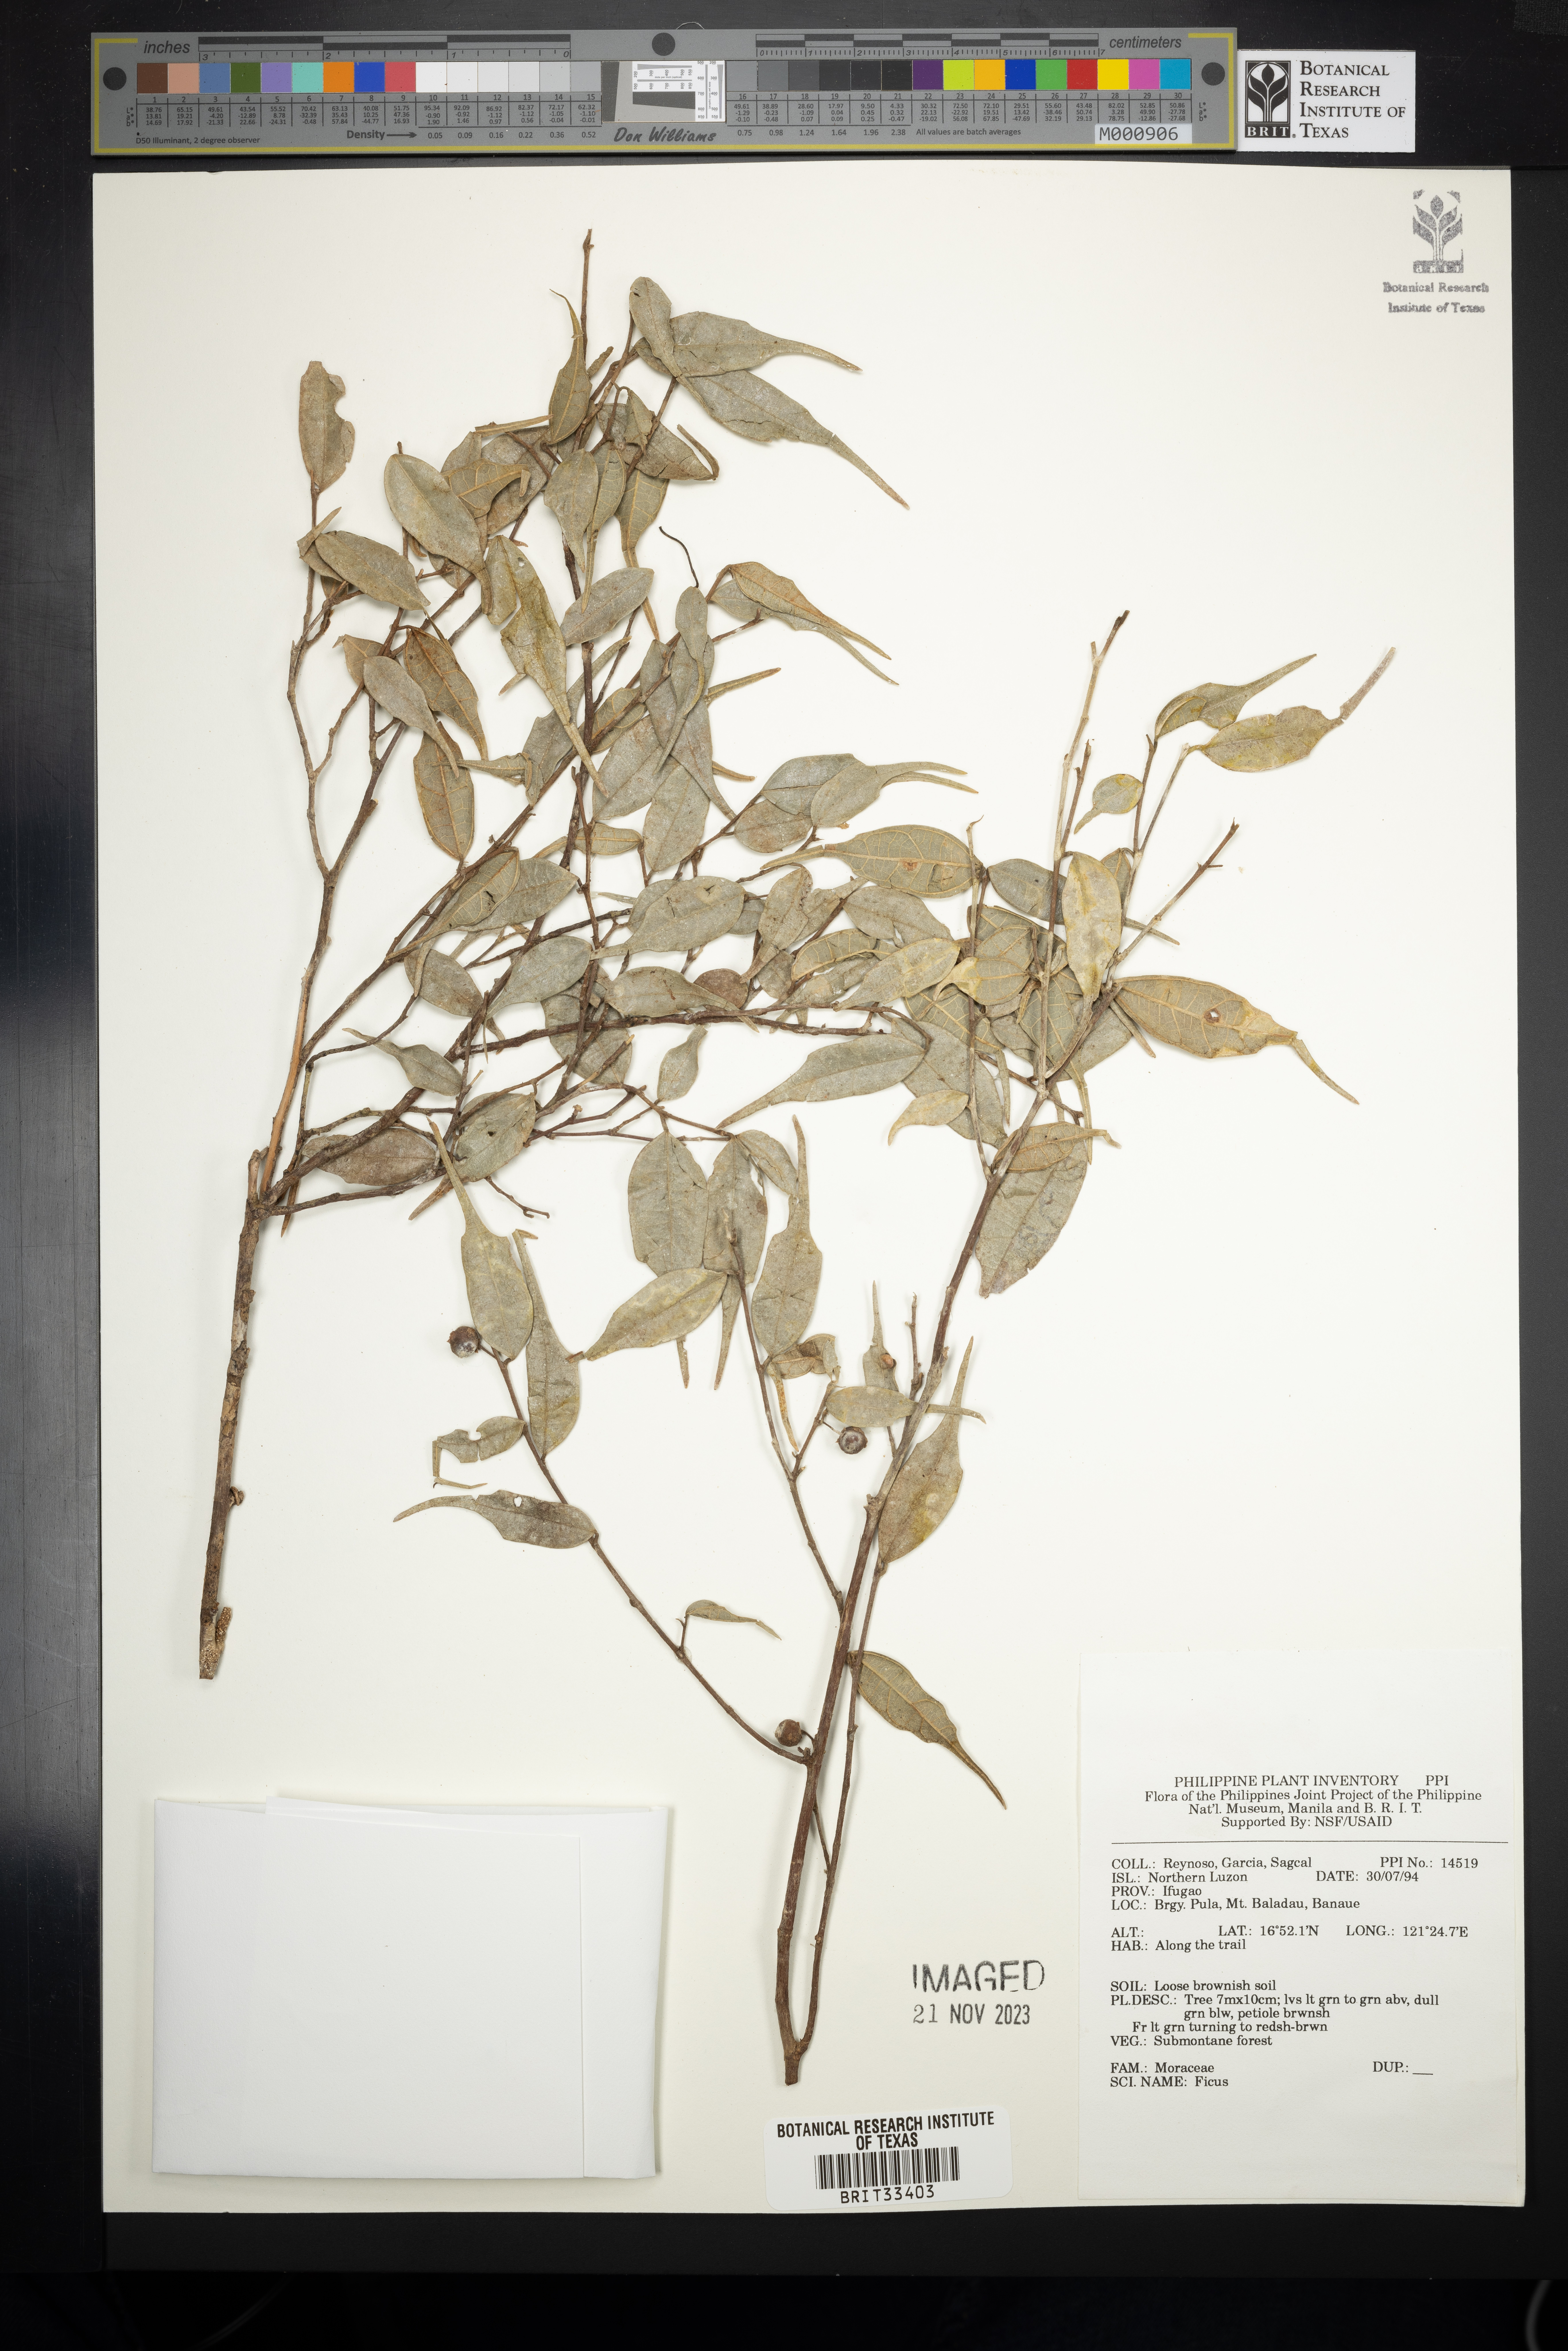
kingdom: Plantae
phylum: Tracheophyta
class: Magnoliopsida
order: Rosales
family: Moraceae
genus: Ficus
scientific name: Ficus
